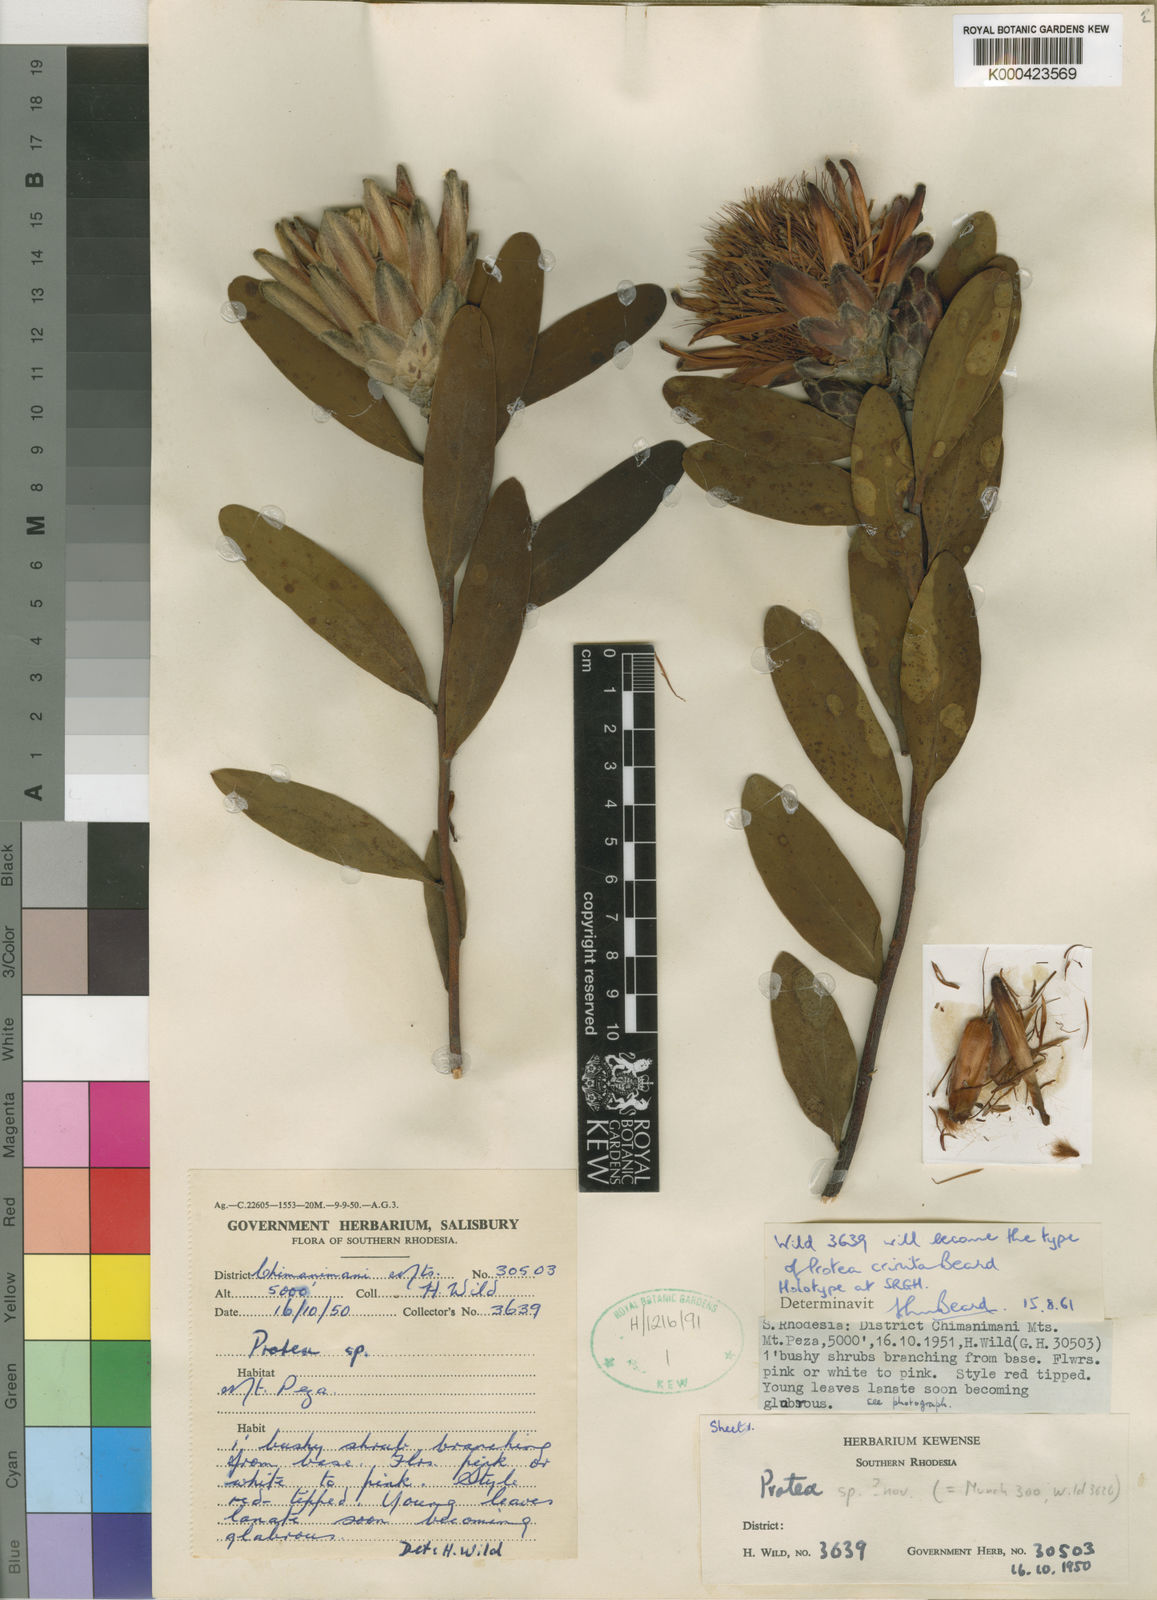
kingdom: Plantae
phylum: Tracheophyta
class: Magnoliopsida
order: Proteales
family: Proteaceae
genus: Protea
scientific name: Protea wentzeliana
